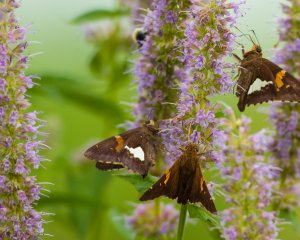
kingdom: Animalia
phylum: Arthropoda
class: Insecta
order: Lepidoptera
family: Hesperiidae
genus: Epargyreus
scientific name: Epargyreus clarus
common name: Silver-spotted Skipper
